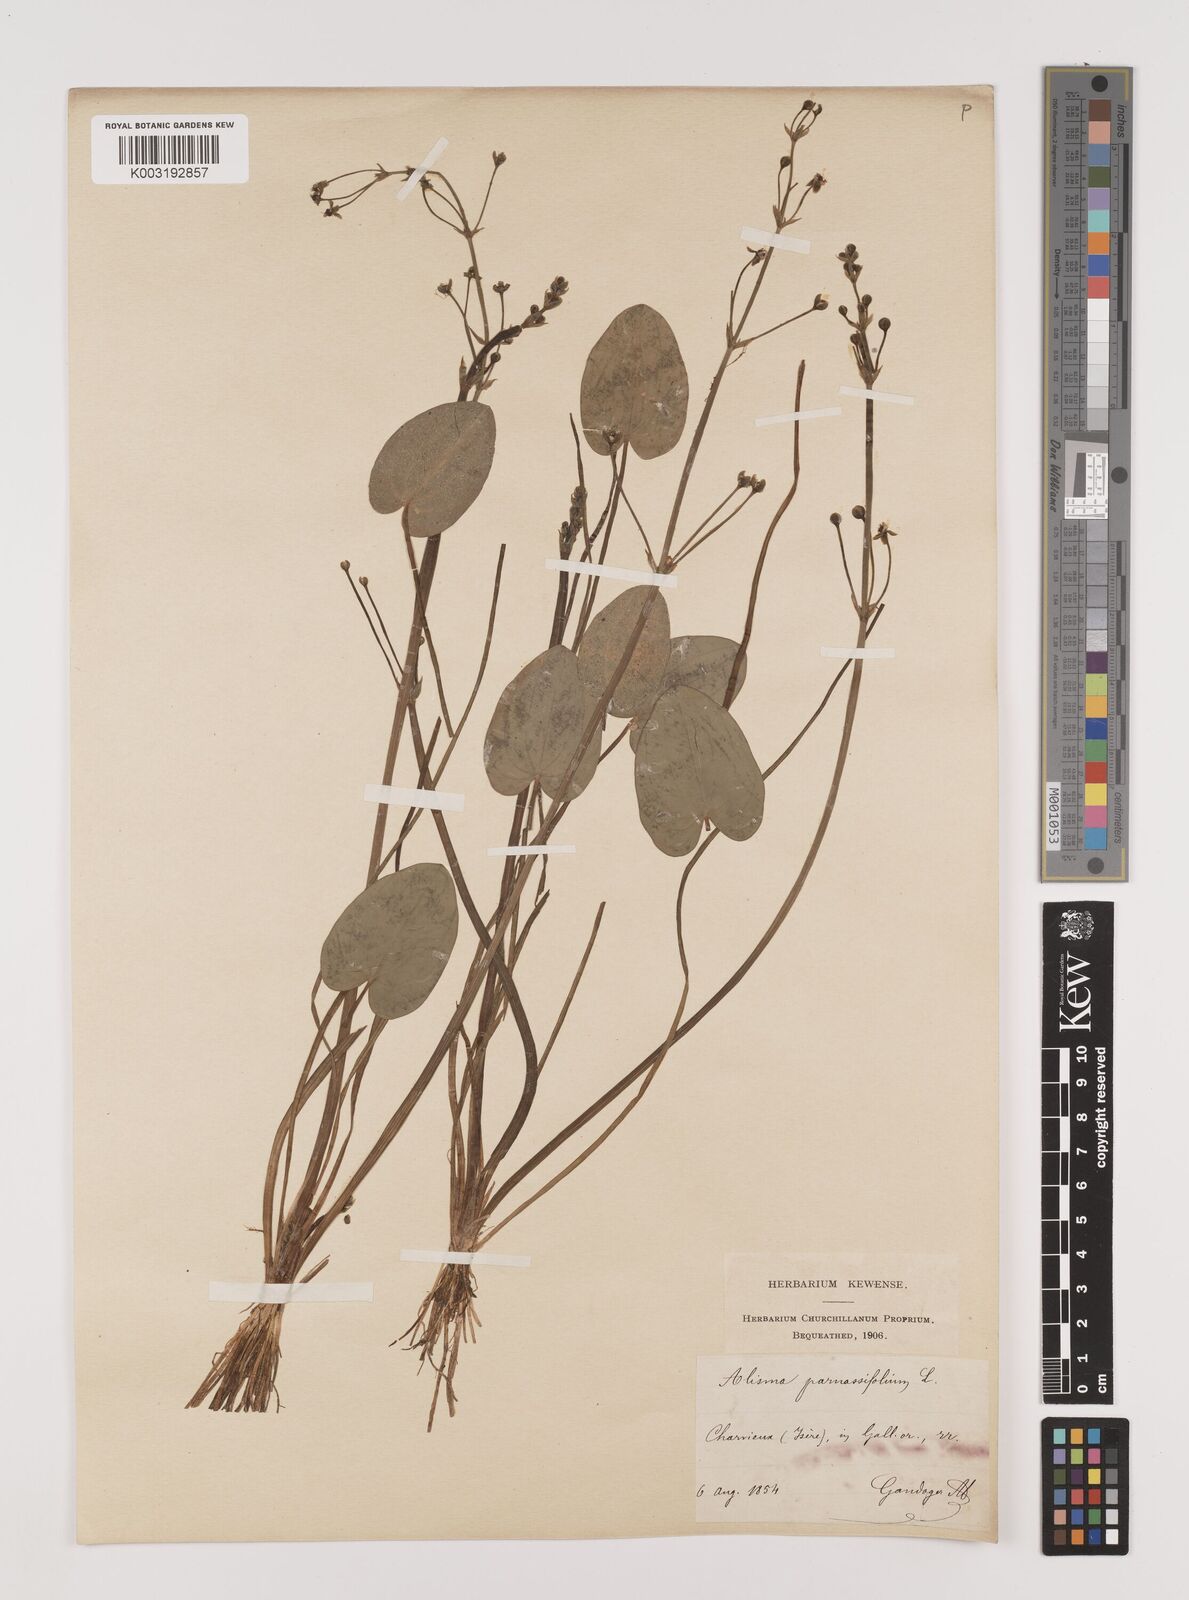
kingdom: Plantae
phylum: Tracheophyta
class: Liliopsida
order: Alismatales
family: Alismataceae
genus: Caldesia
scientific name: Caldesia parnassifolia
